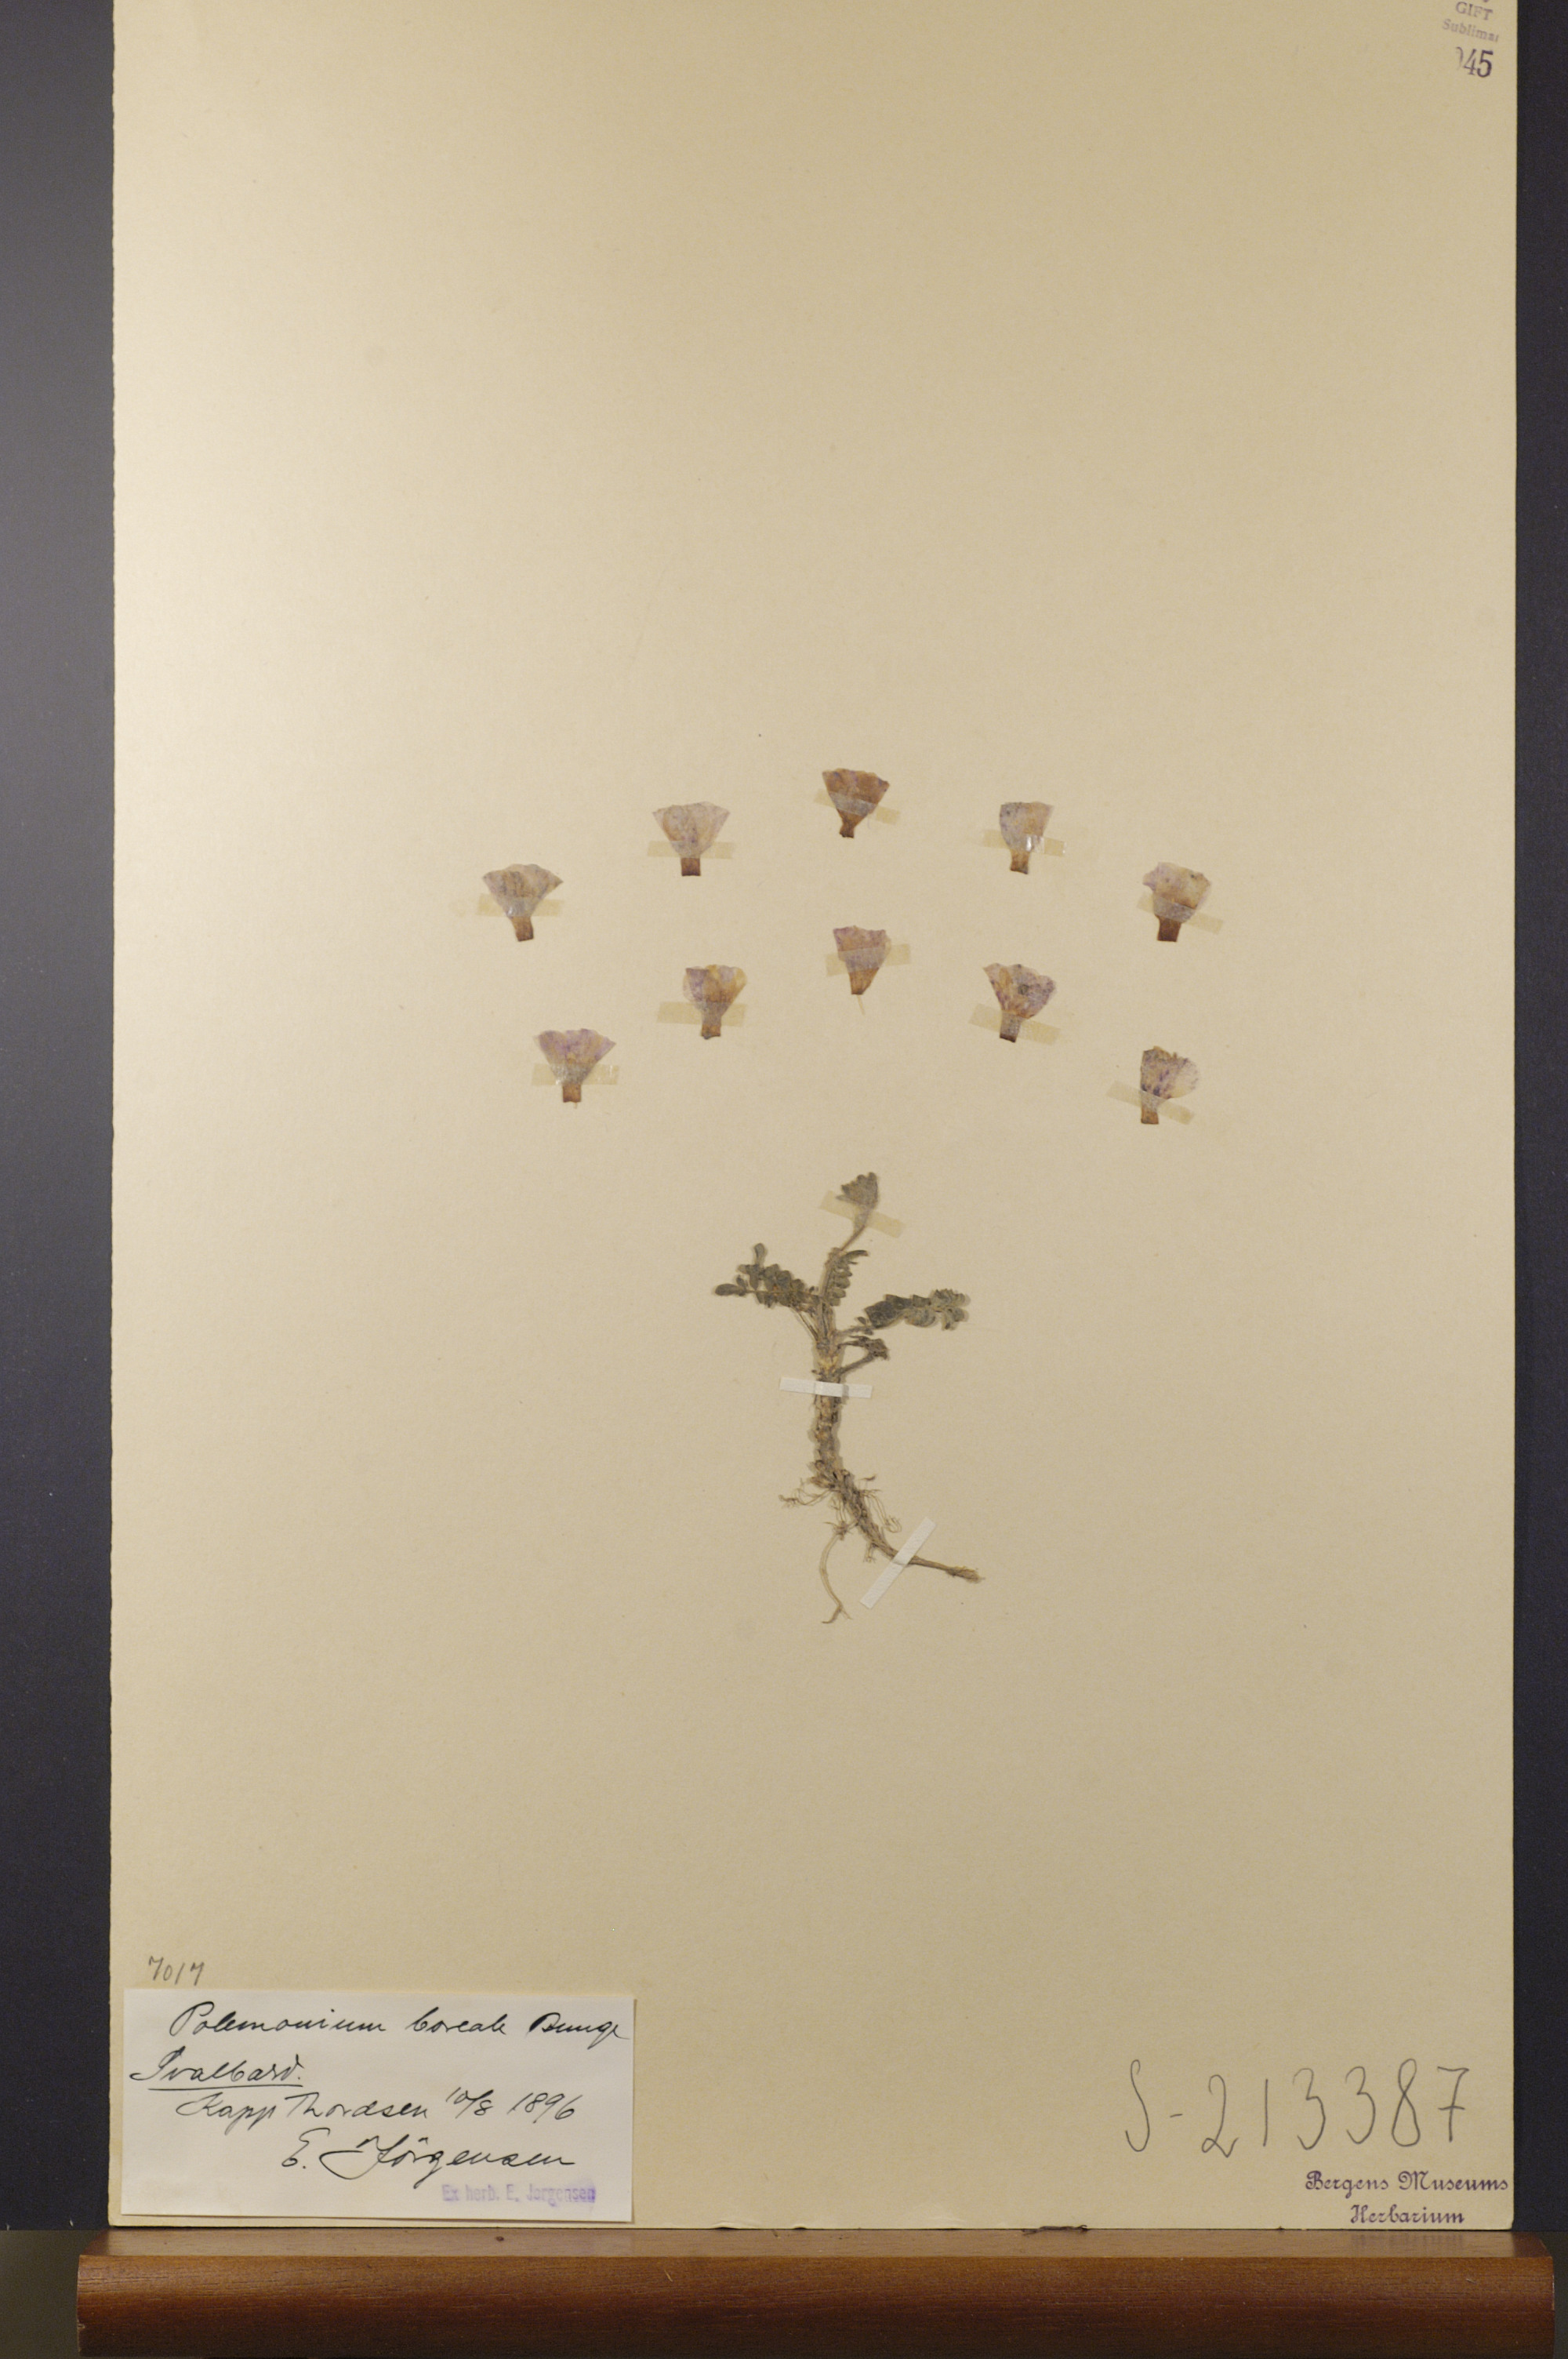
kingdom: Plantae
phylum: Tracheophyta
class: Magnoliopsida
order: Ericales
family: Polemoniaceae
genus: Polemonium
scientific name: Polemonium boreale
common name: Boreal jacob's-ladder
